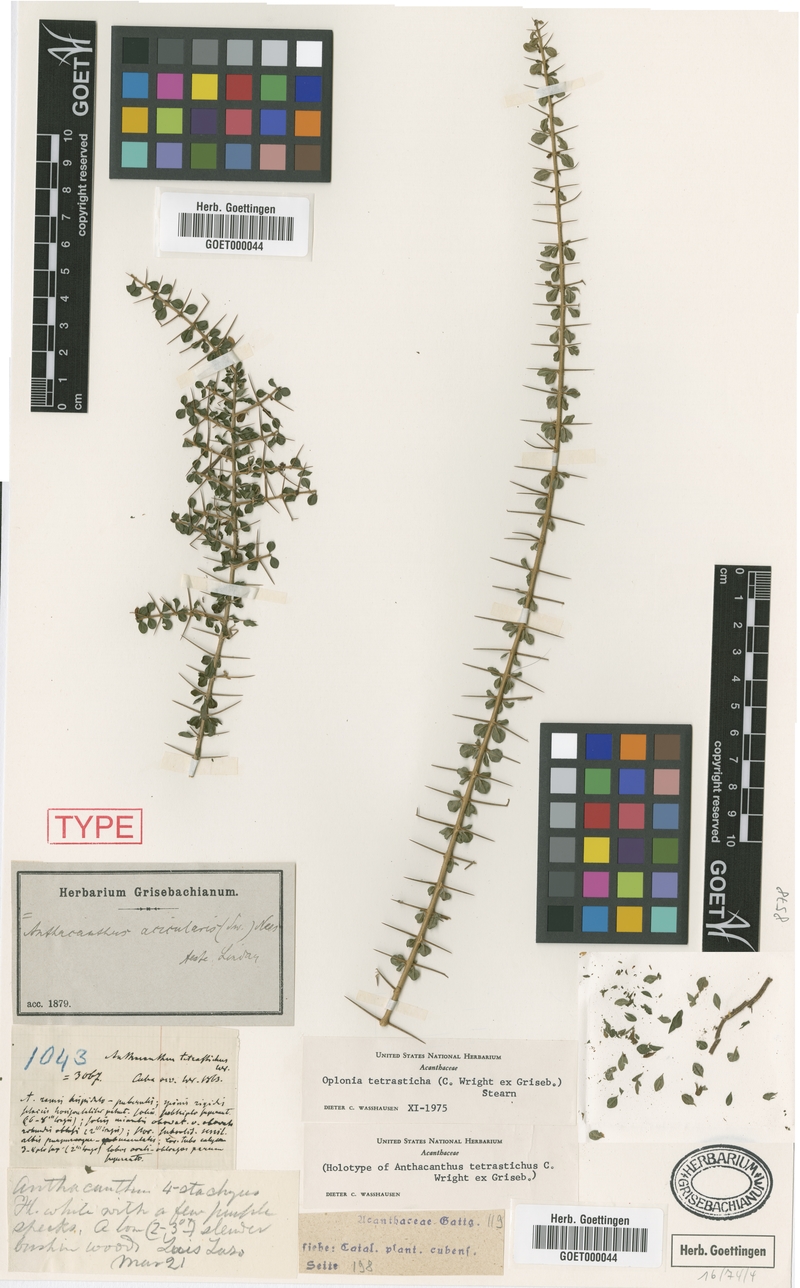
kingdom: Plantae
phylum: Tracheophyta
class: Magnoliopsida
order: Lamiales
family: Acanthaceae
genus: Oplonia
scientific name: Oplonia tetrasticha
